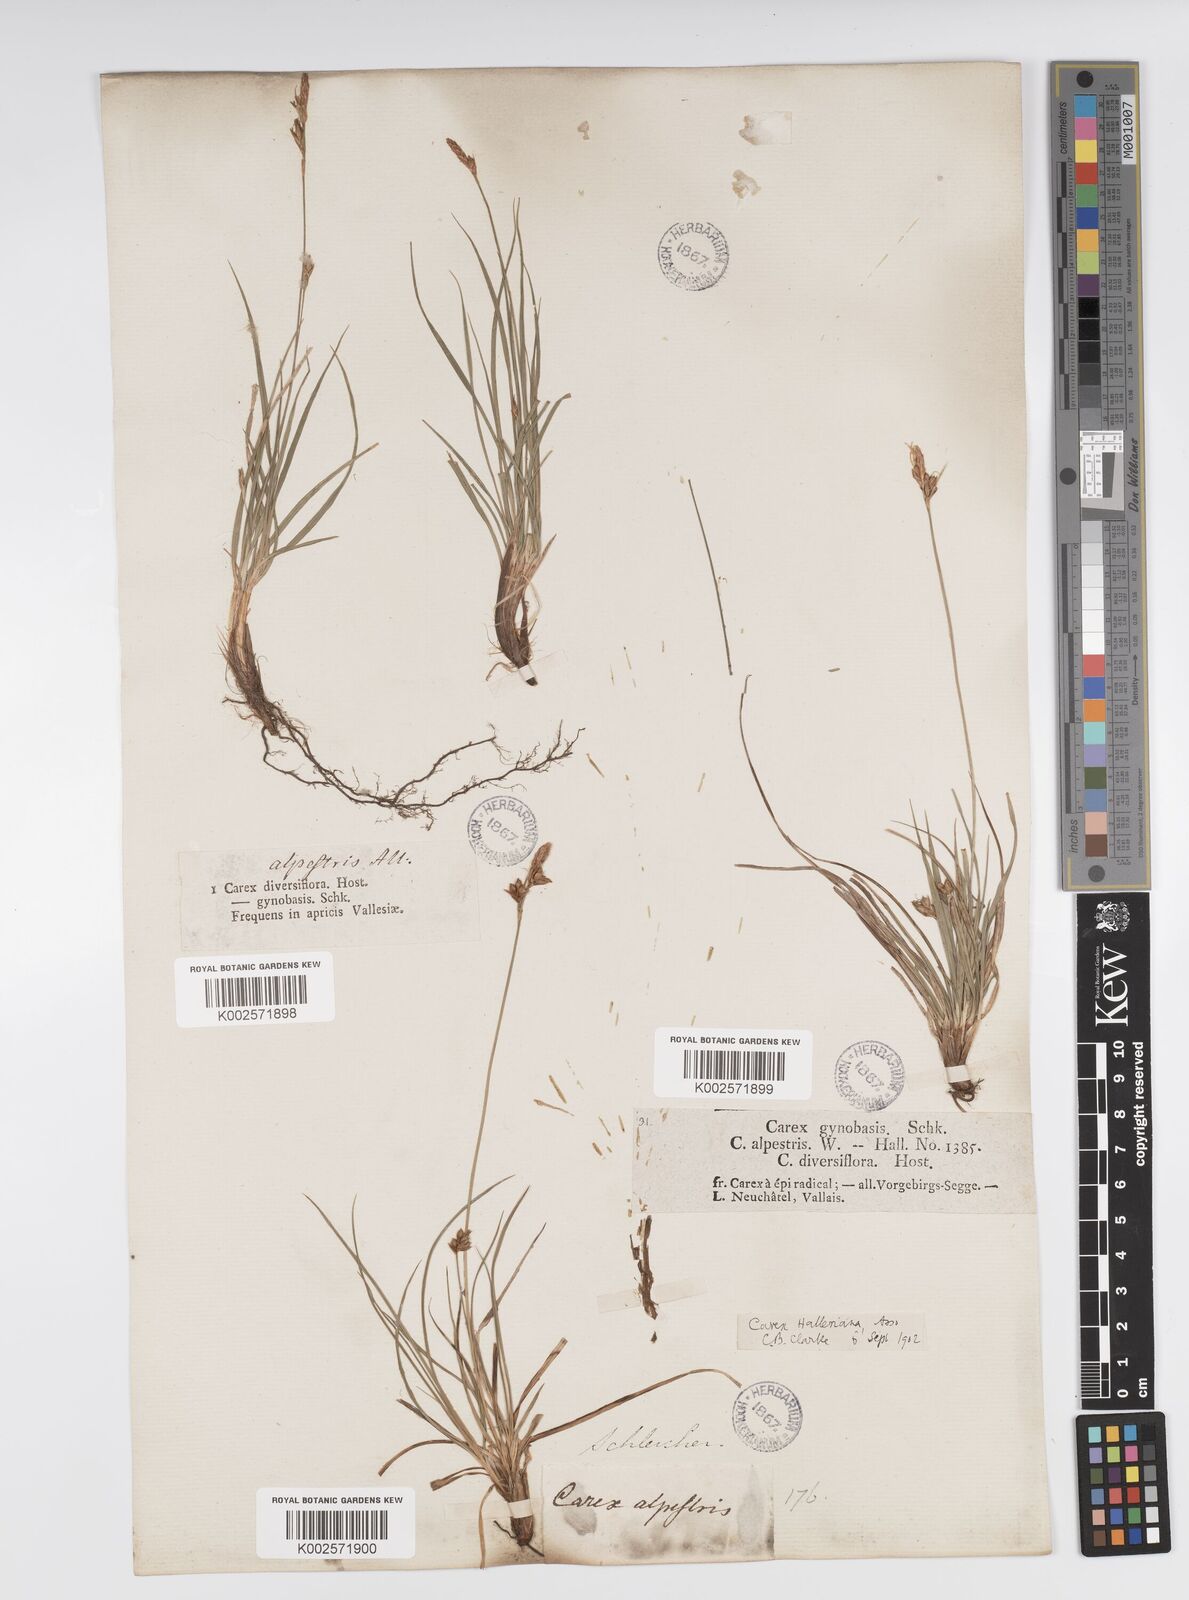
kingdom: Plantae
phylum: Tracheophyta
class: Liliopsida
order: Poales
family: Cyperaceae
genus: Carex
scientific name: Carex halleriana
